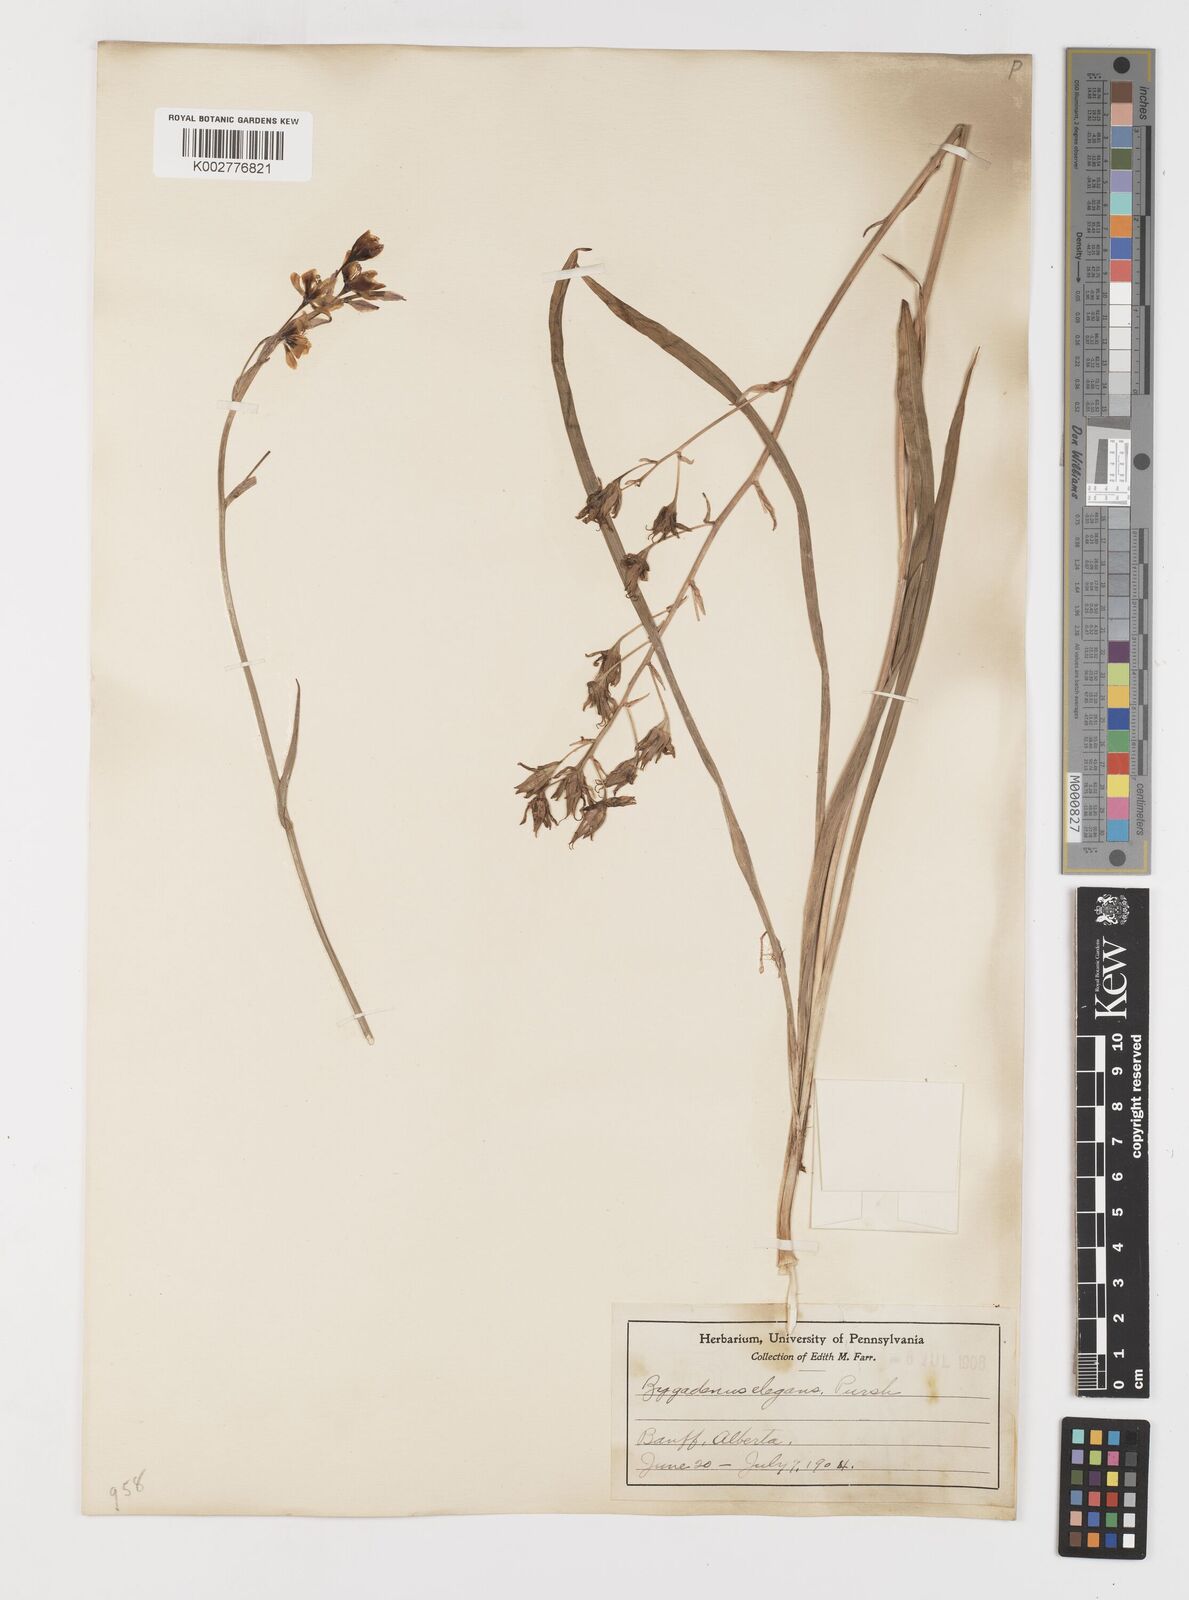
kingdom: Plantae
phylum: Tracheophyta
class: Liliopsida
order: Liliales
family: Melanthiaceae
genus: Anticlea
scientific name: Anticlea elegans
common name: Mountain death camas
